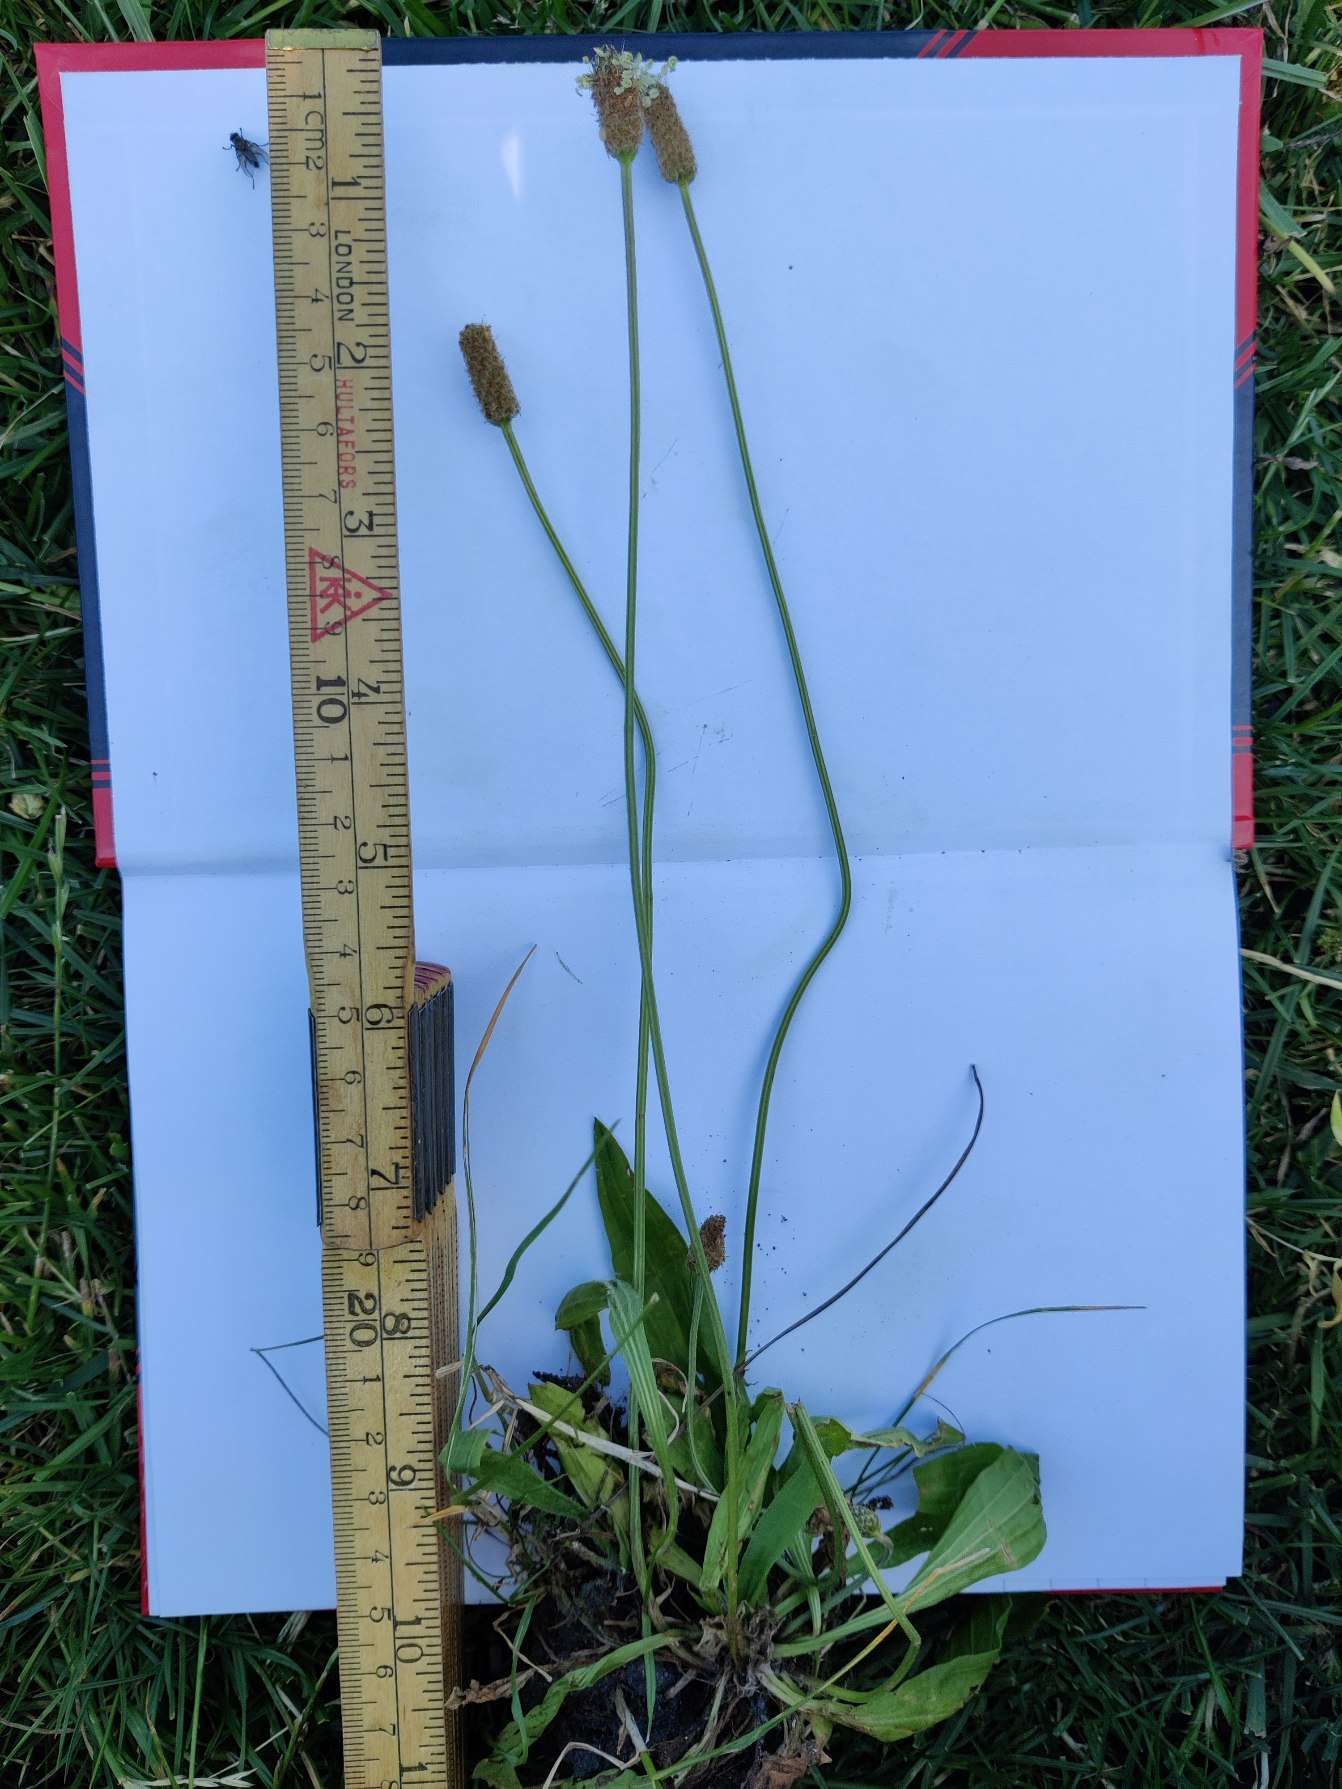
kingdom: Plantae
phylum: Tracheophyta
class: Magnoliopsida
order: Lamiales
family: Plantaginaceae
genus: Plantago
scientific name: Plantago lanceolata
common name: Lancet-vejbred
